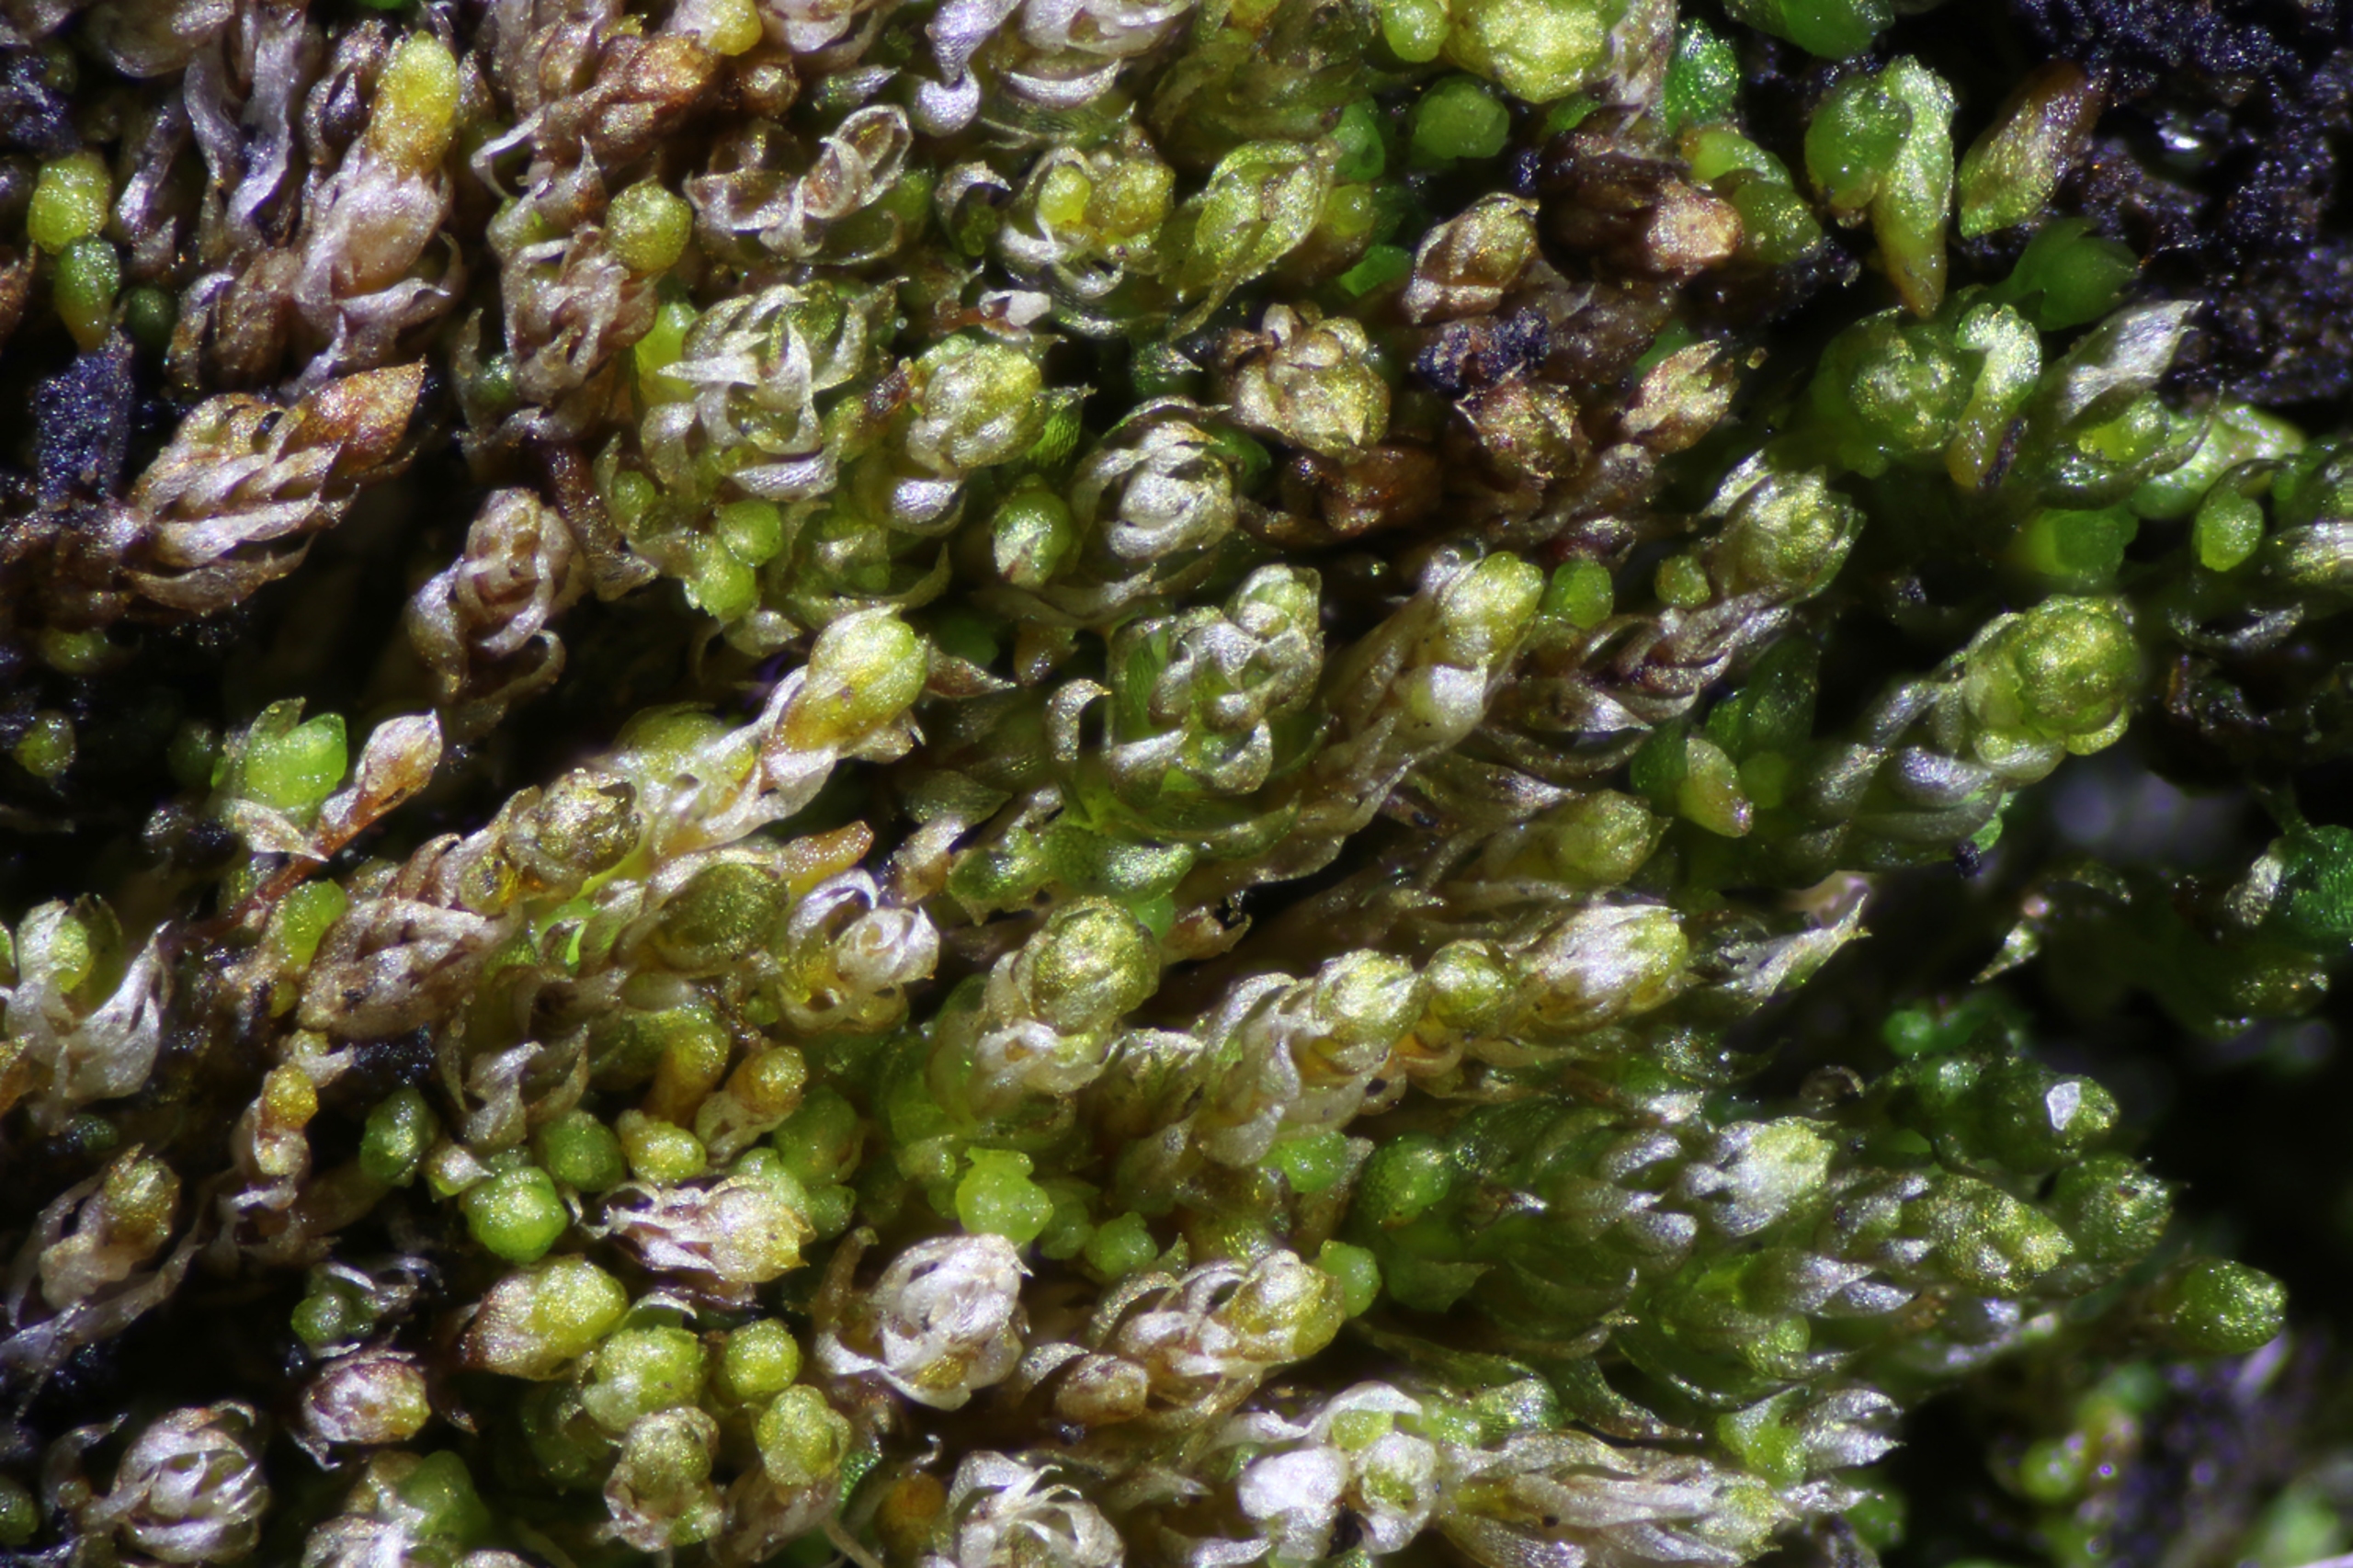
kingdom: Plantae
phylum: Bryophyta
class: Bryopsida
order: Bryales
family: Bryaceae
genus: Gemmabryum
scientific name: Gemmabryum dichotomum
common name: Dværg-bryum
